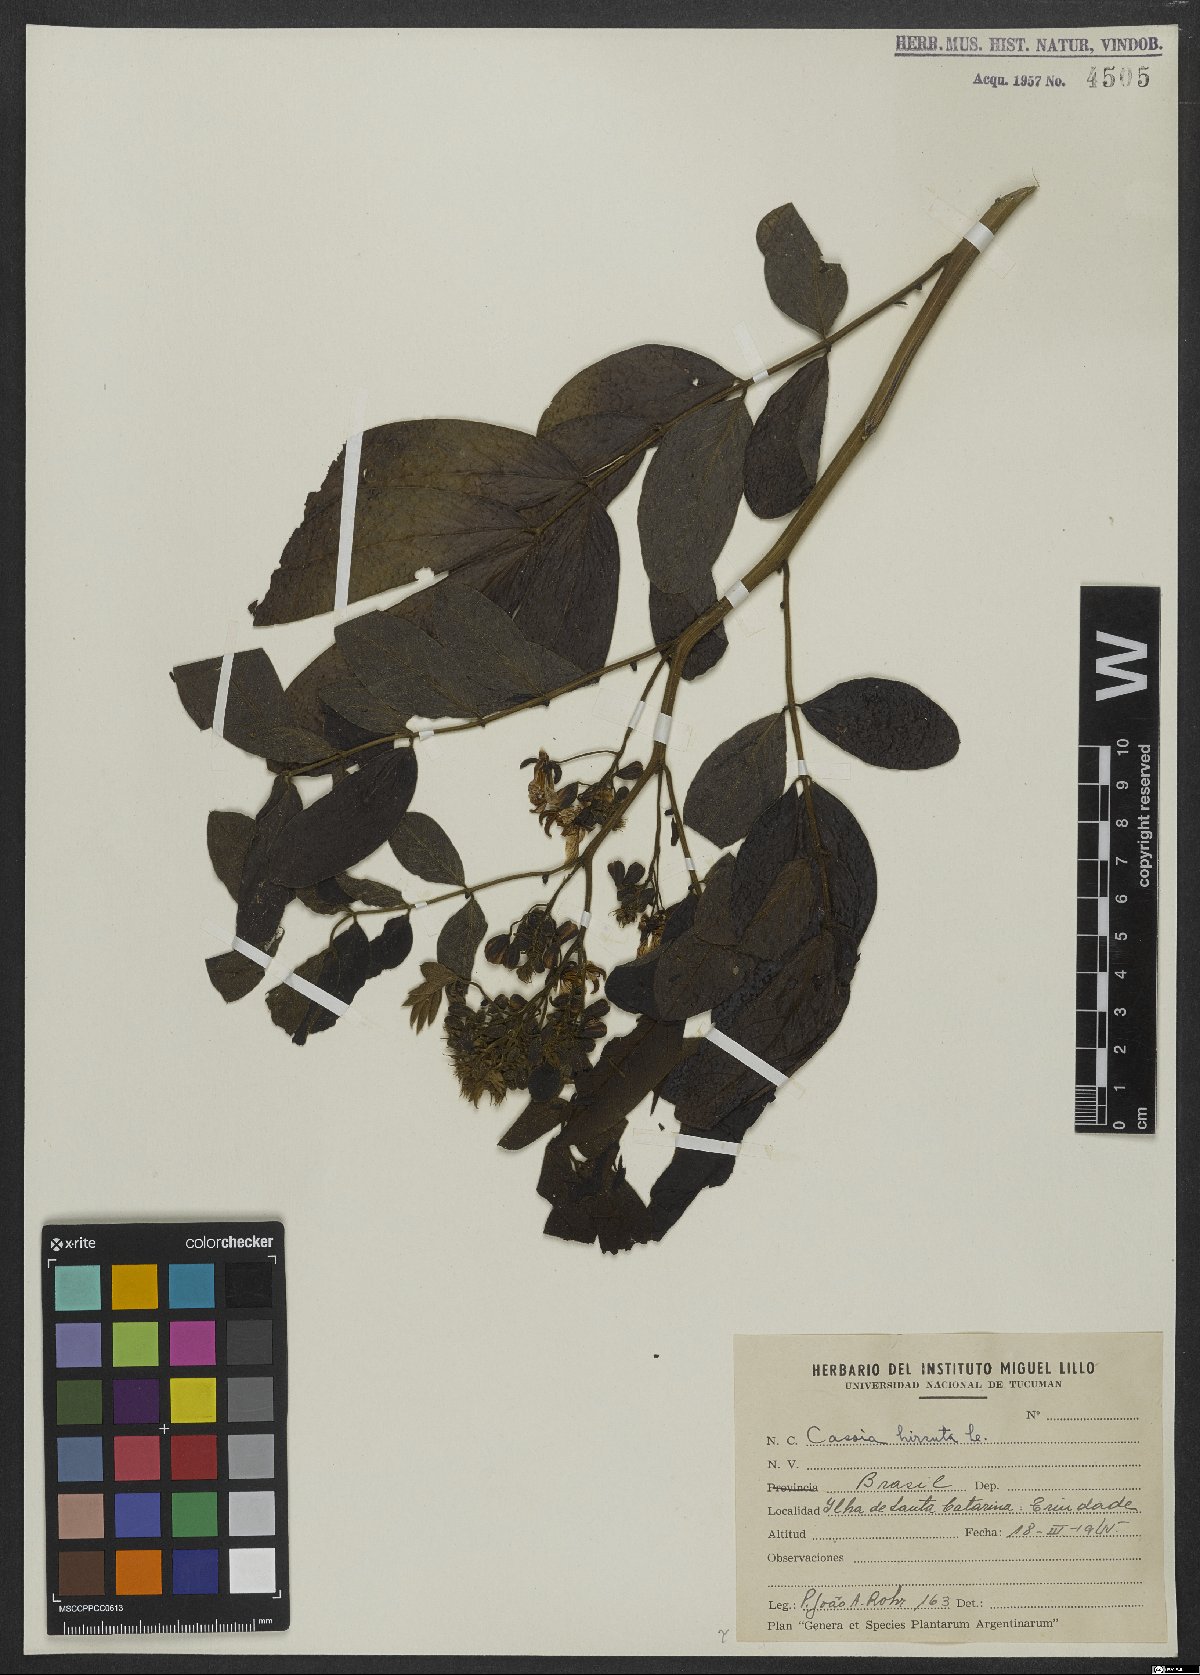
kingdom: Plantae
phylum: Tracheophyta
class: Magnoliopsida
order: Fabales
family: Fabaceae
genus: Senna
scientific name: Senna hirsuta
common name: Woolly senna
